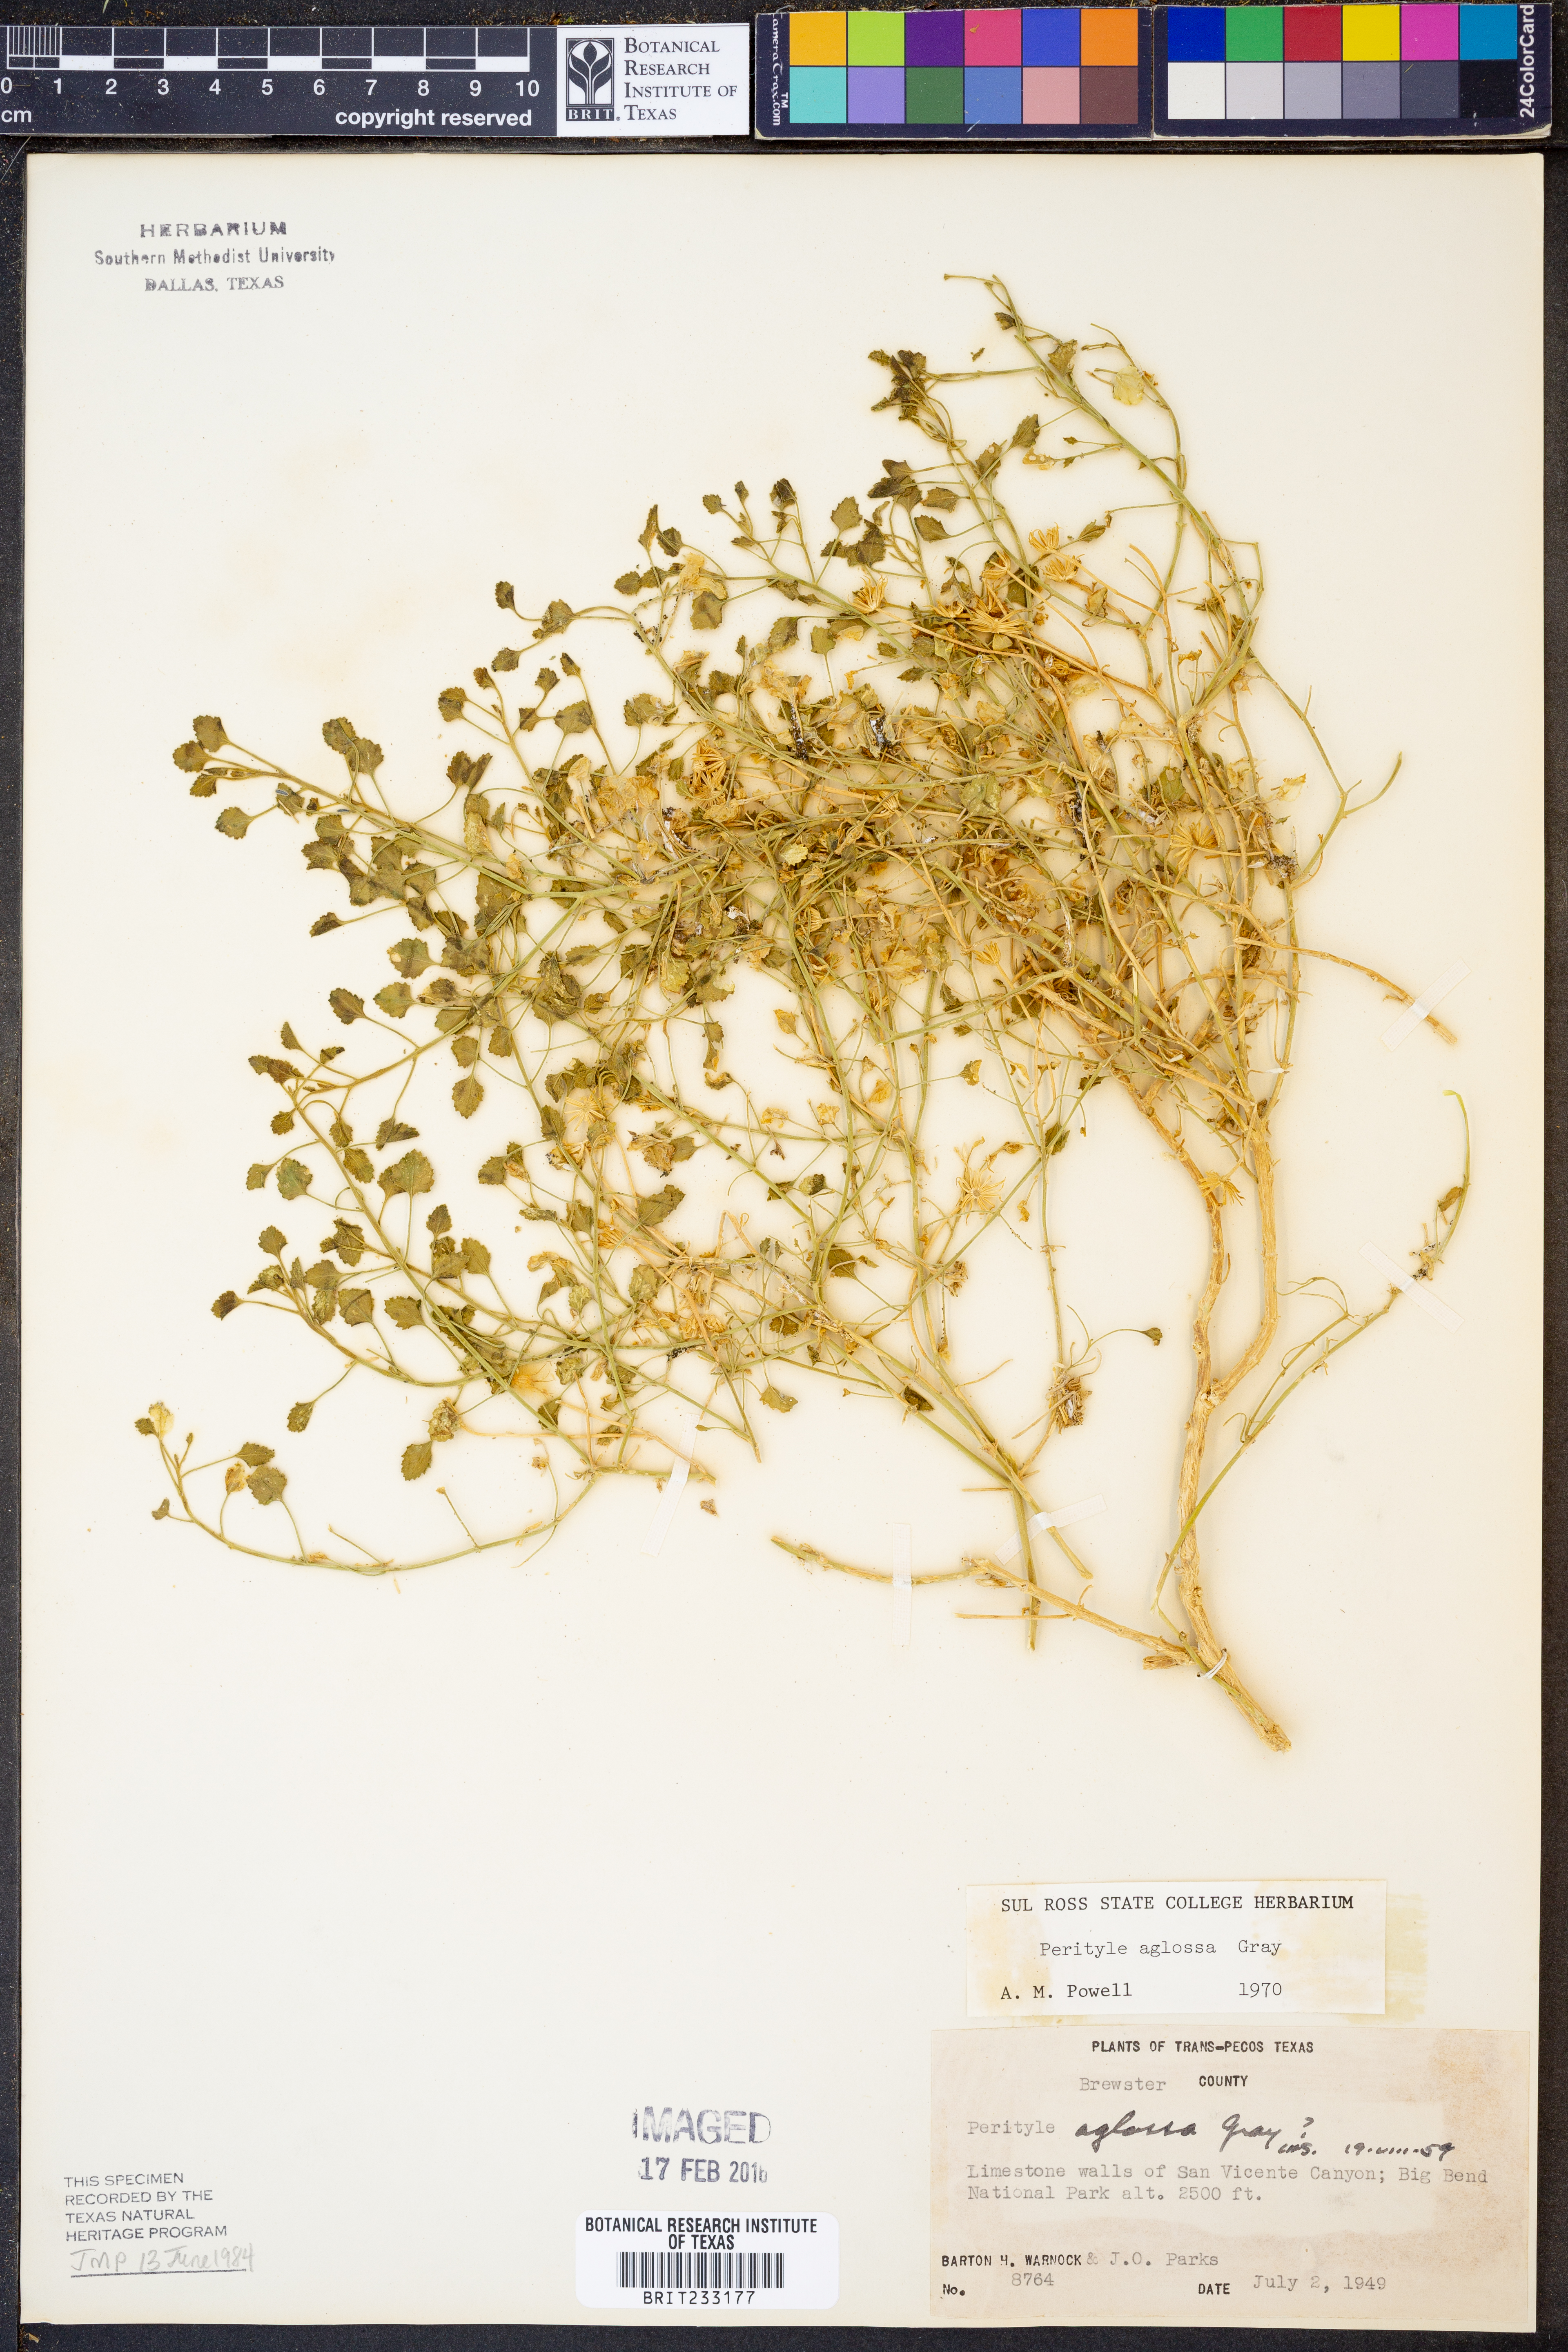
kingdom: Plantae
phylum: Tracheophyta
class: Magnoliopsida
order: Asterales
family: Asteraceae
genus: Laphamia
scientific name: Laphamia aglossa
